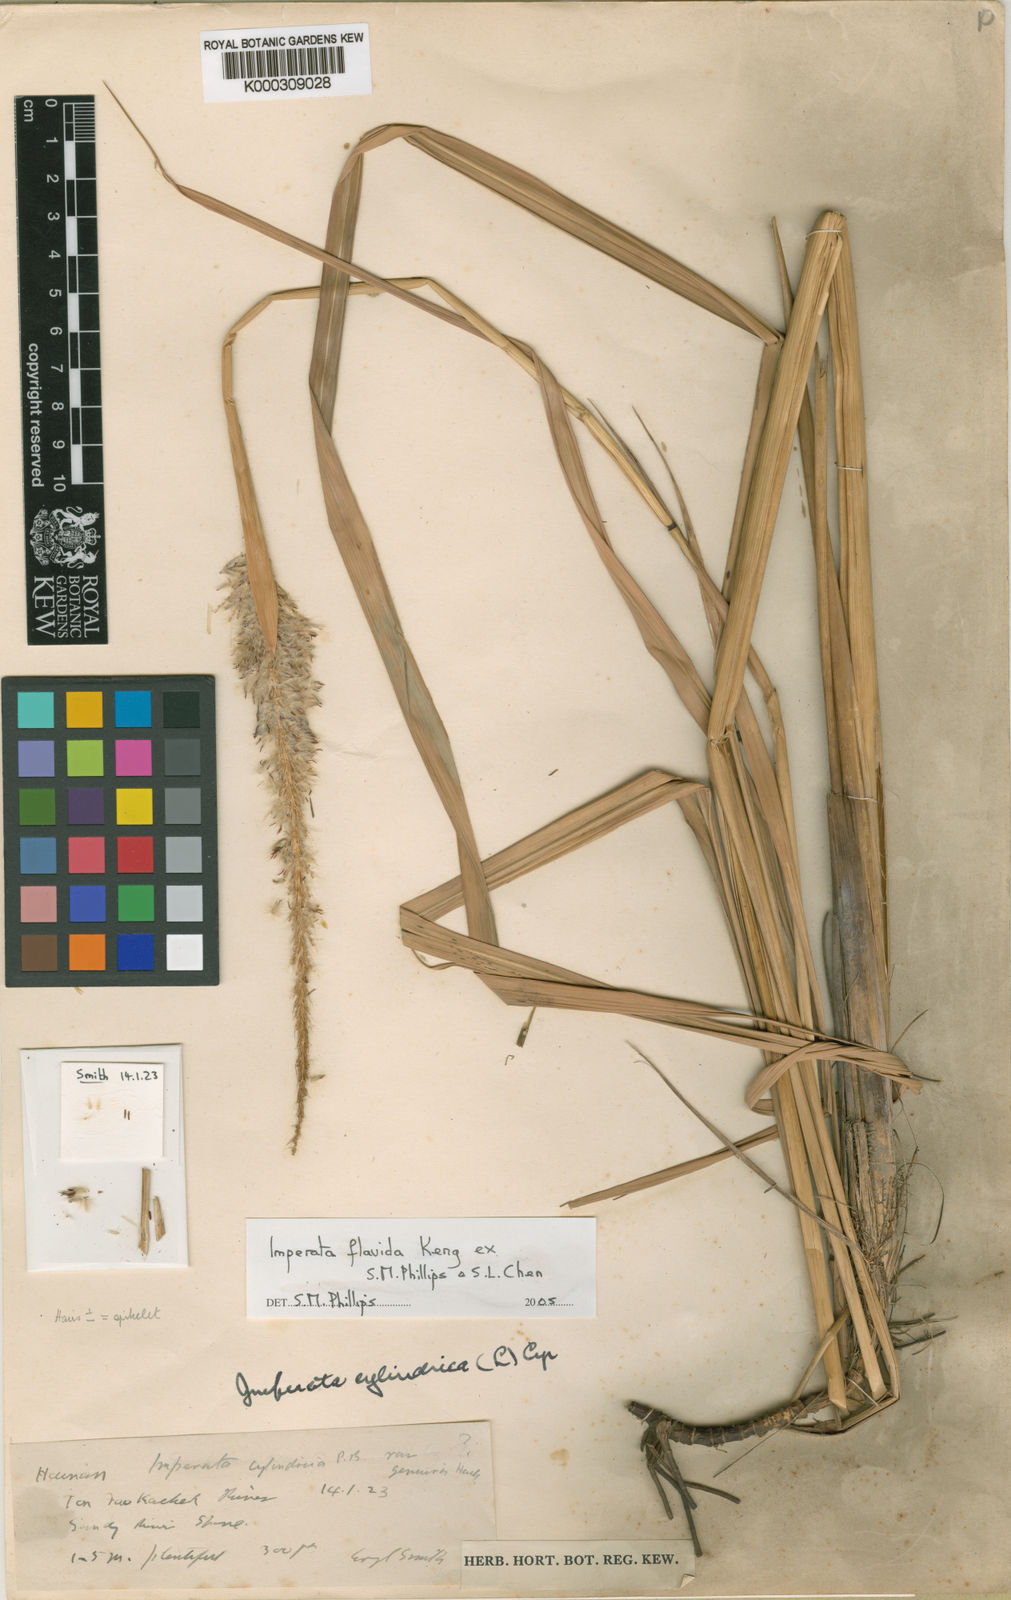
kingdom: Plantae
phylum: Tracheophyta
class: Liliopsida
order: Poales
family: Poaceae
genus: Imperata
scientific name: Imperata flavida
